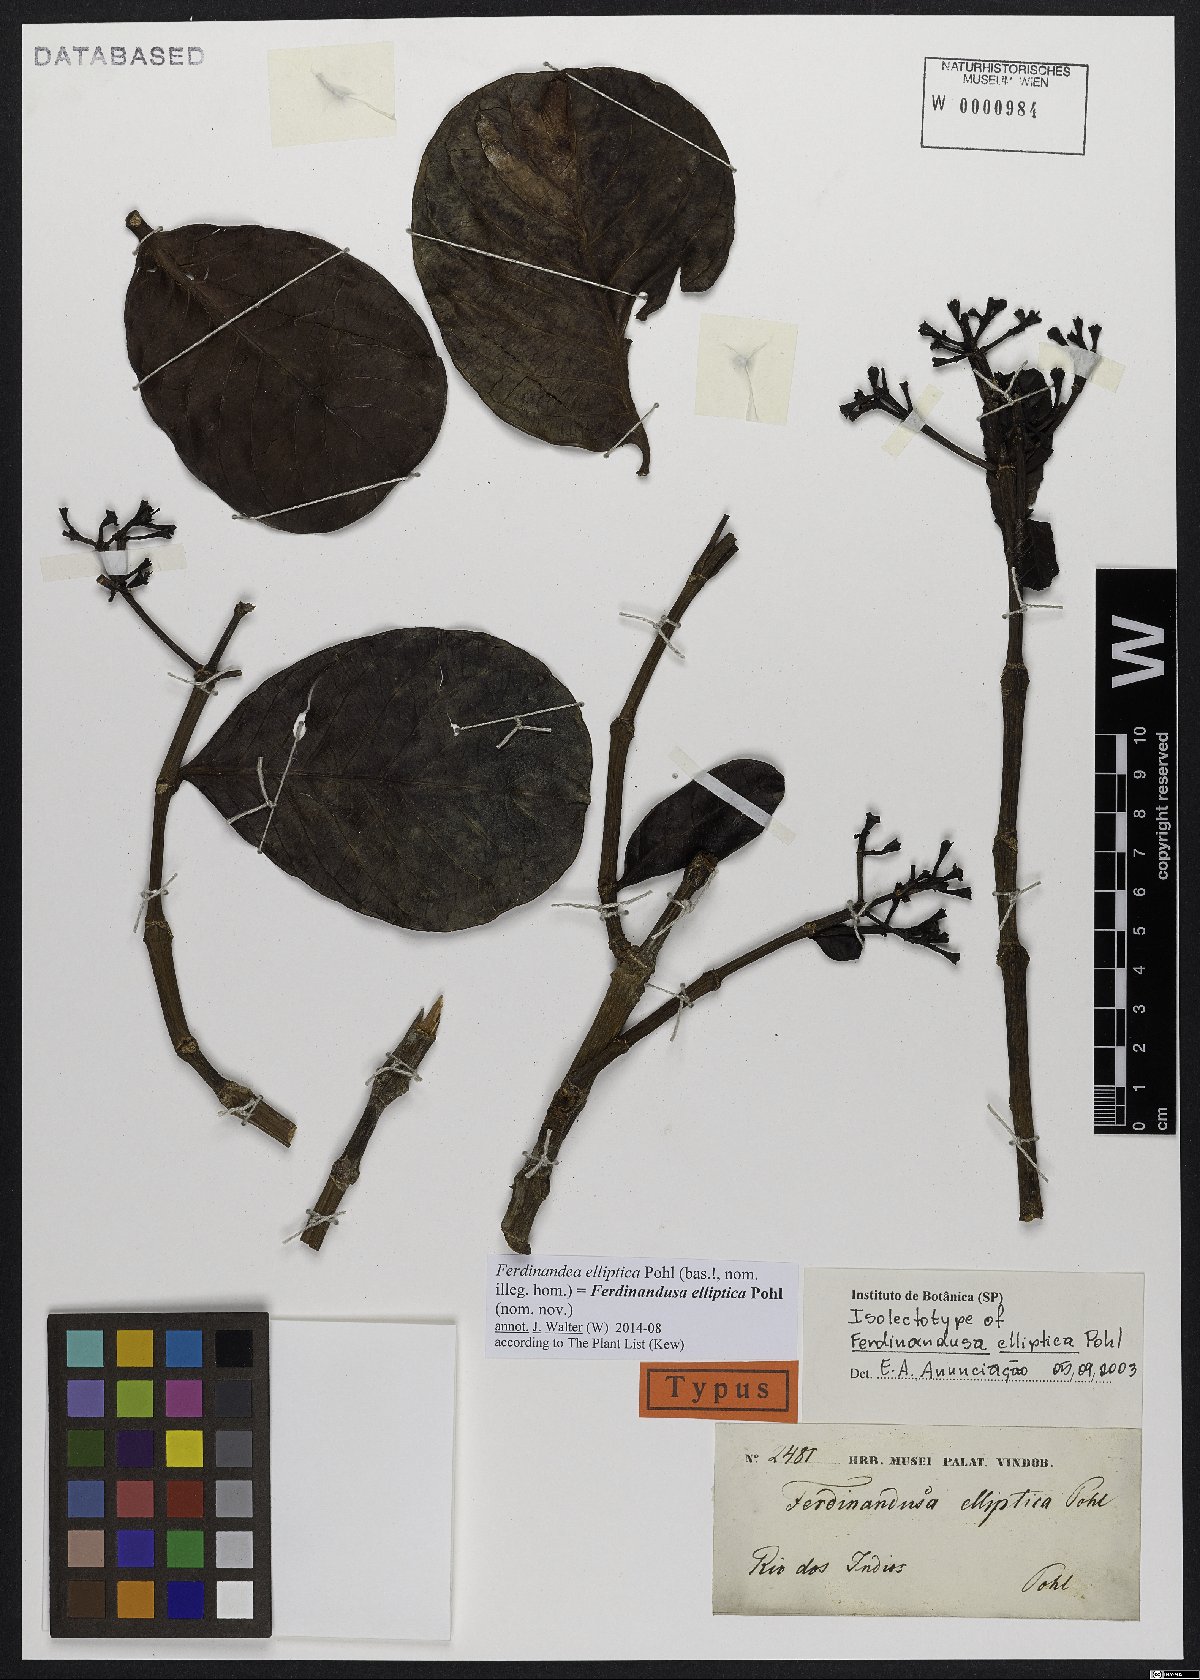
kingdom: Plantae
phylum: Tracheophyta
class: Magnoliopsida
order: Gentianales
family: Rubiaceae
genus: Ferdinandusa
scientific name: Ferdinandusa elliptica
